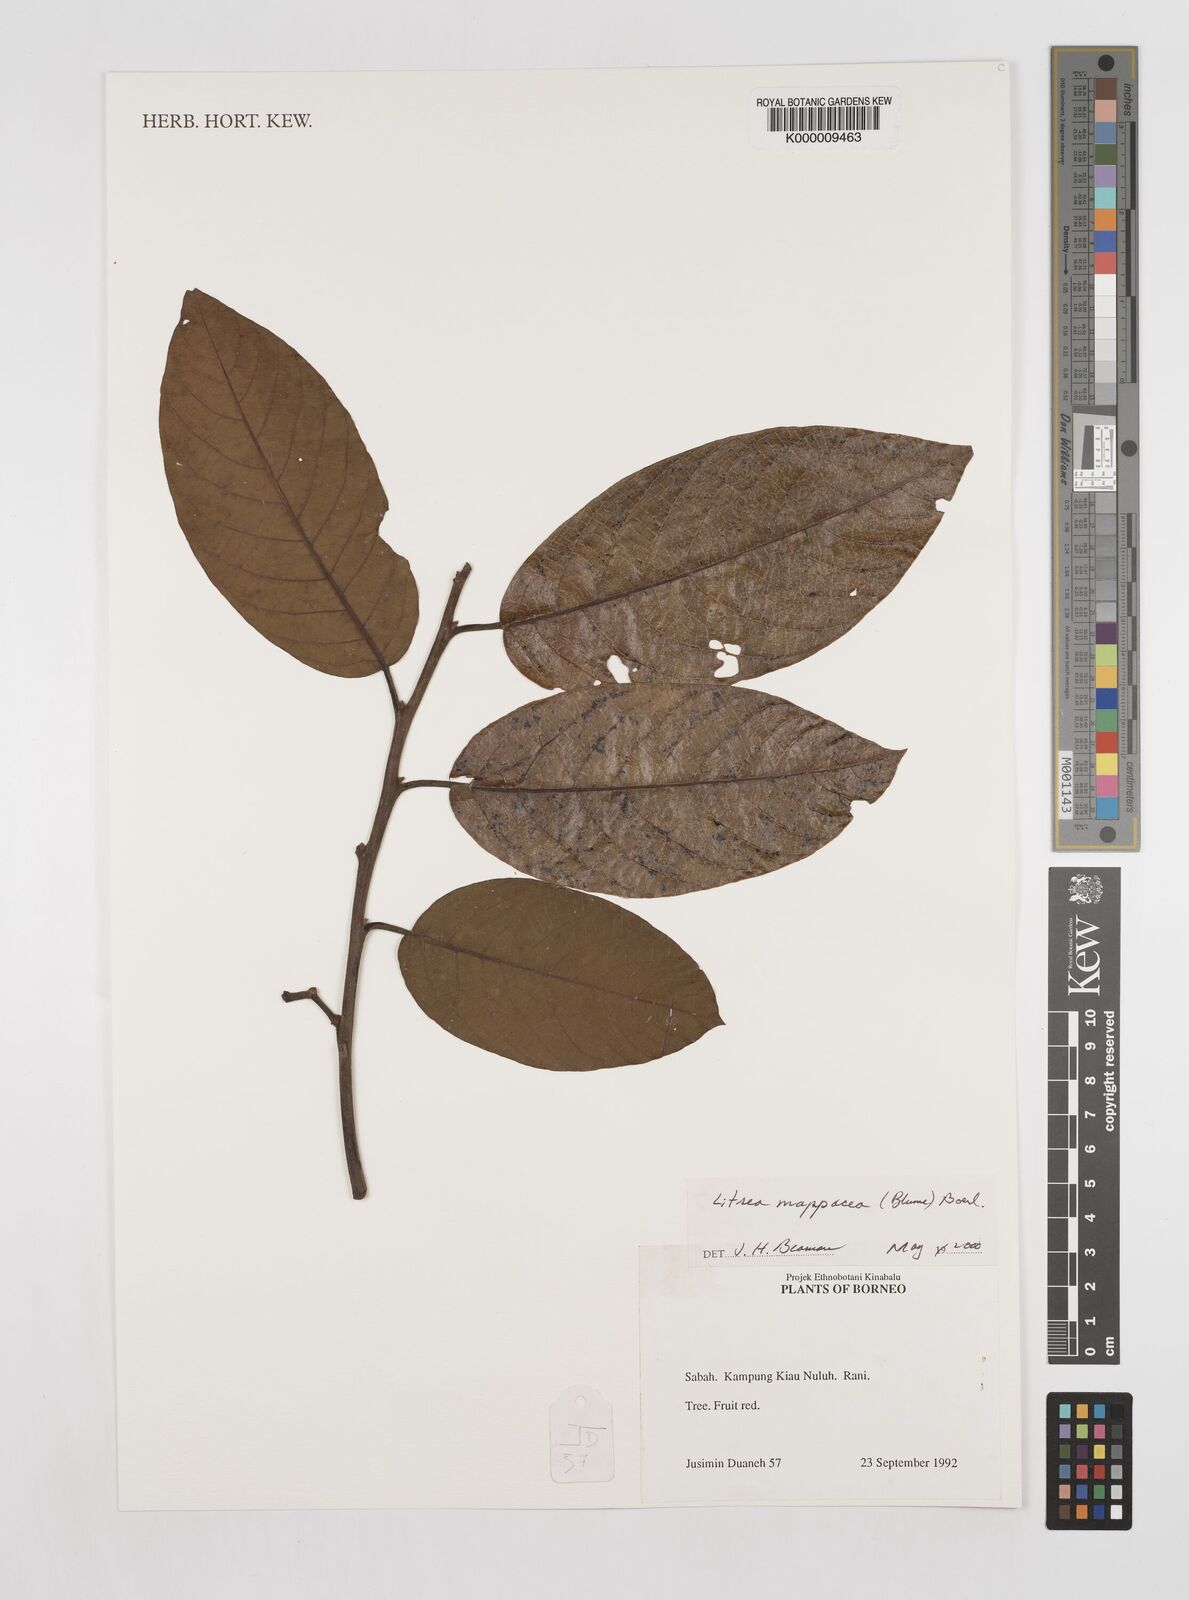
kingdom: Plantae
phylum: Tracheophyta
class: Magnoliopsida
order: Laurales
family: Lauraceae
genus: Litsea
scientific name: Litsea cordata
